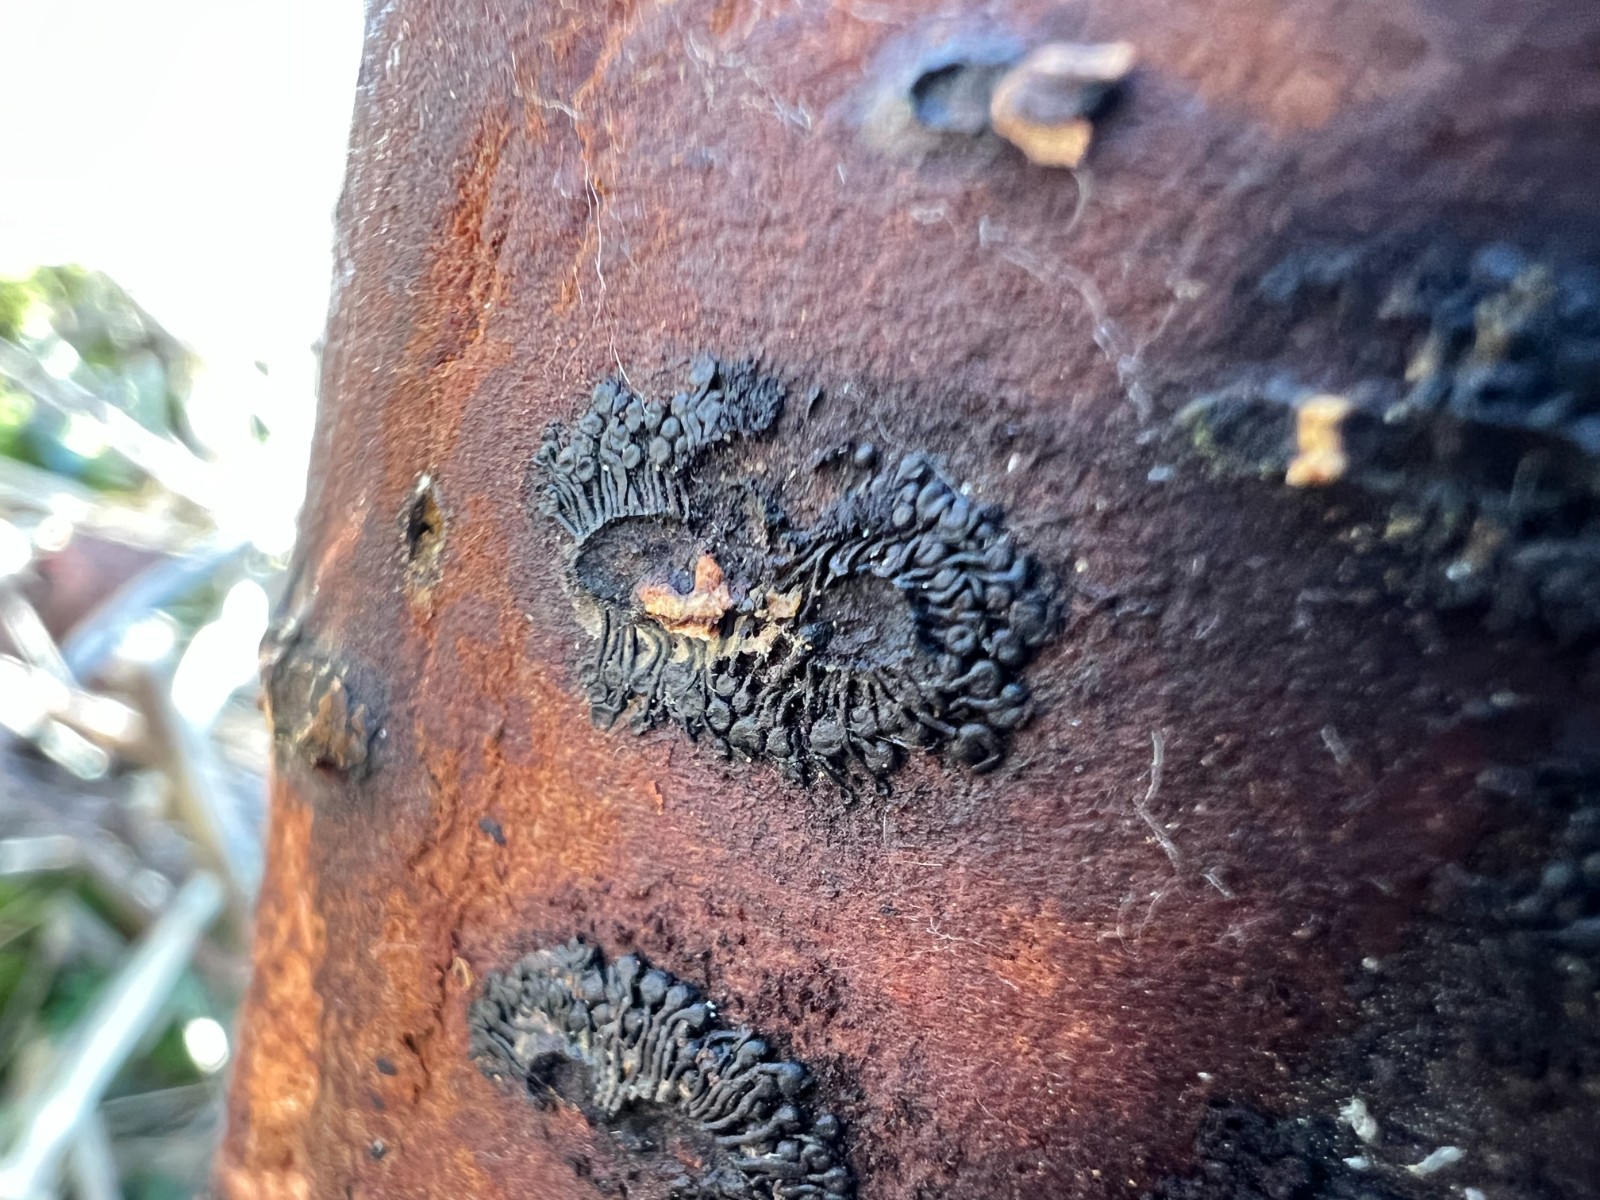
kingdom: Fungi
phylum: Ascomycota
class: Sordariomycetes
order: Calosphaeriales
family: Calosphaeriaceae
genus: Calosphaeria
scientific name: Calosphaeria pulchella
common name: smuk slyngkerne
